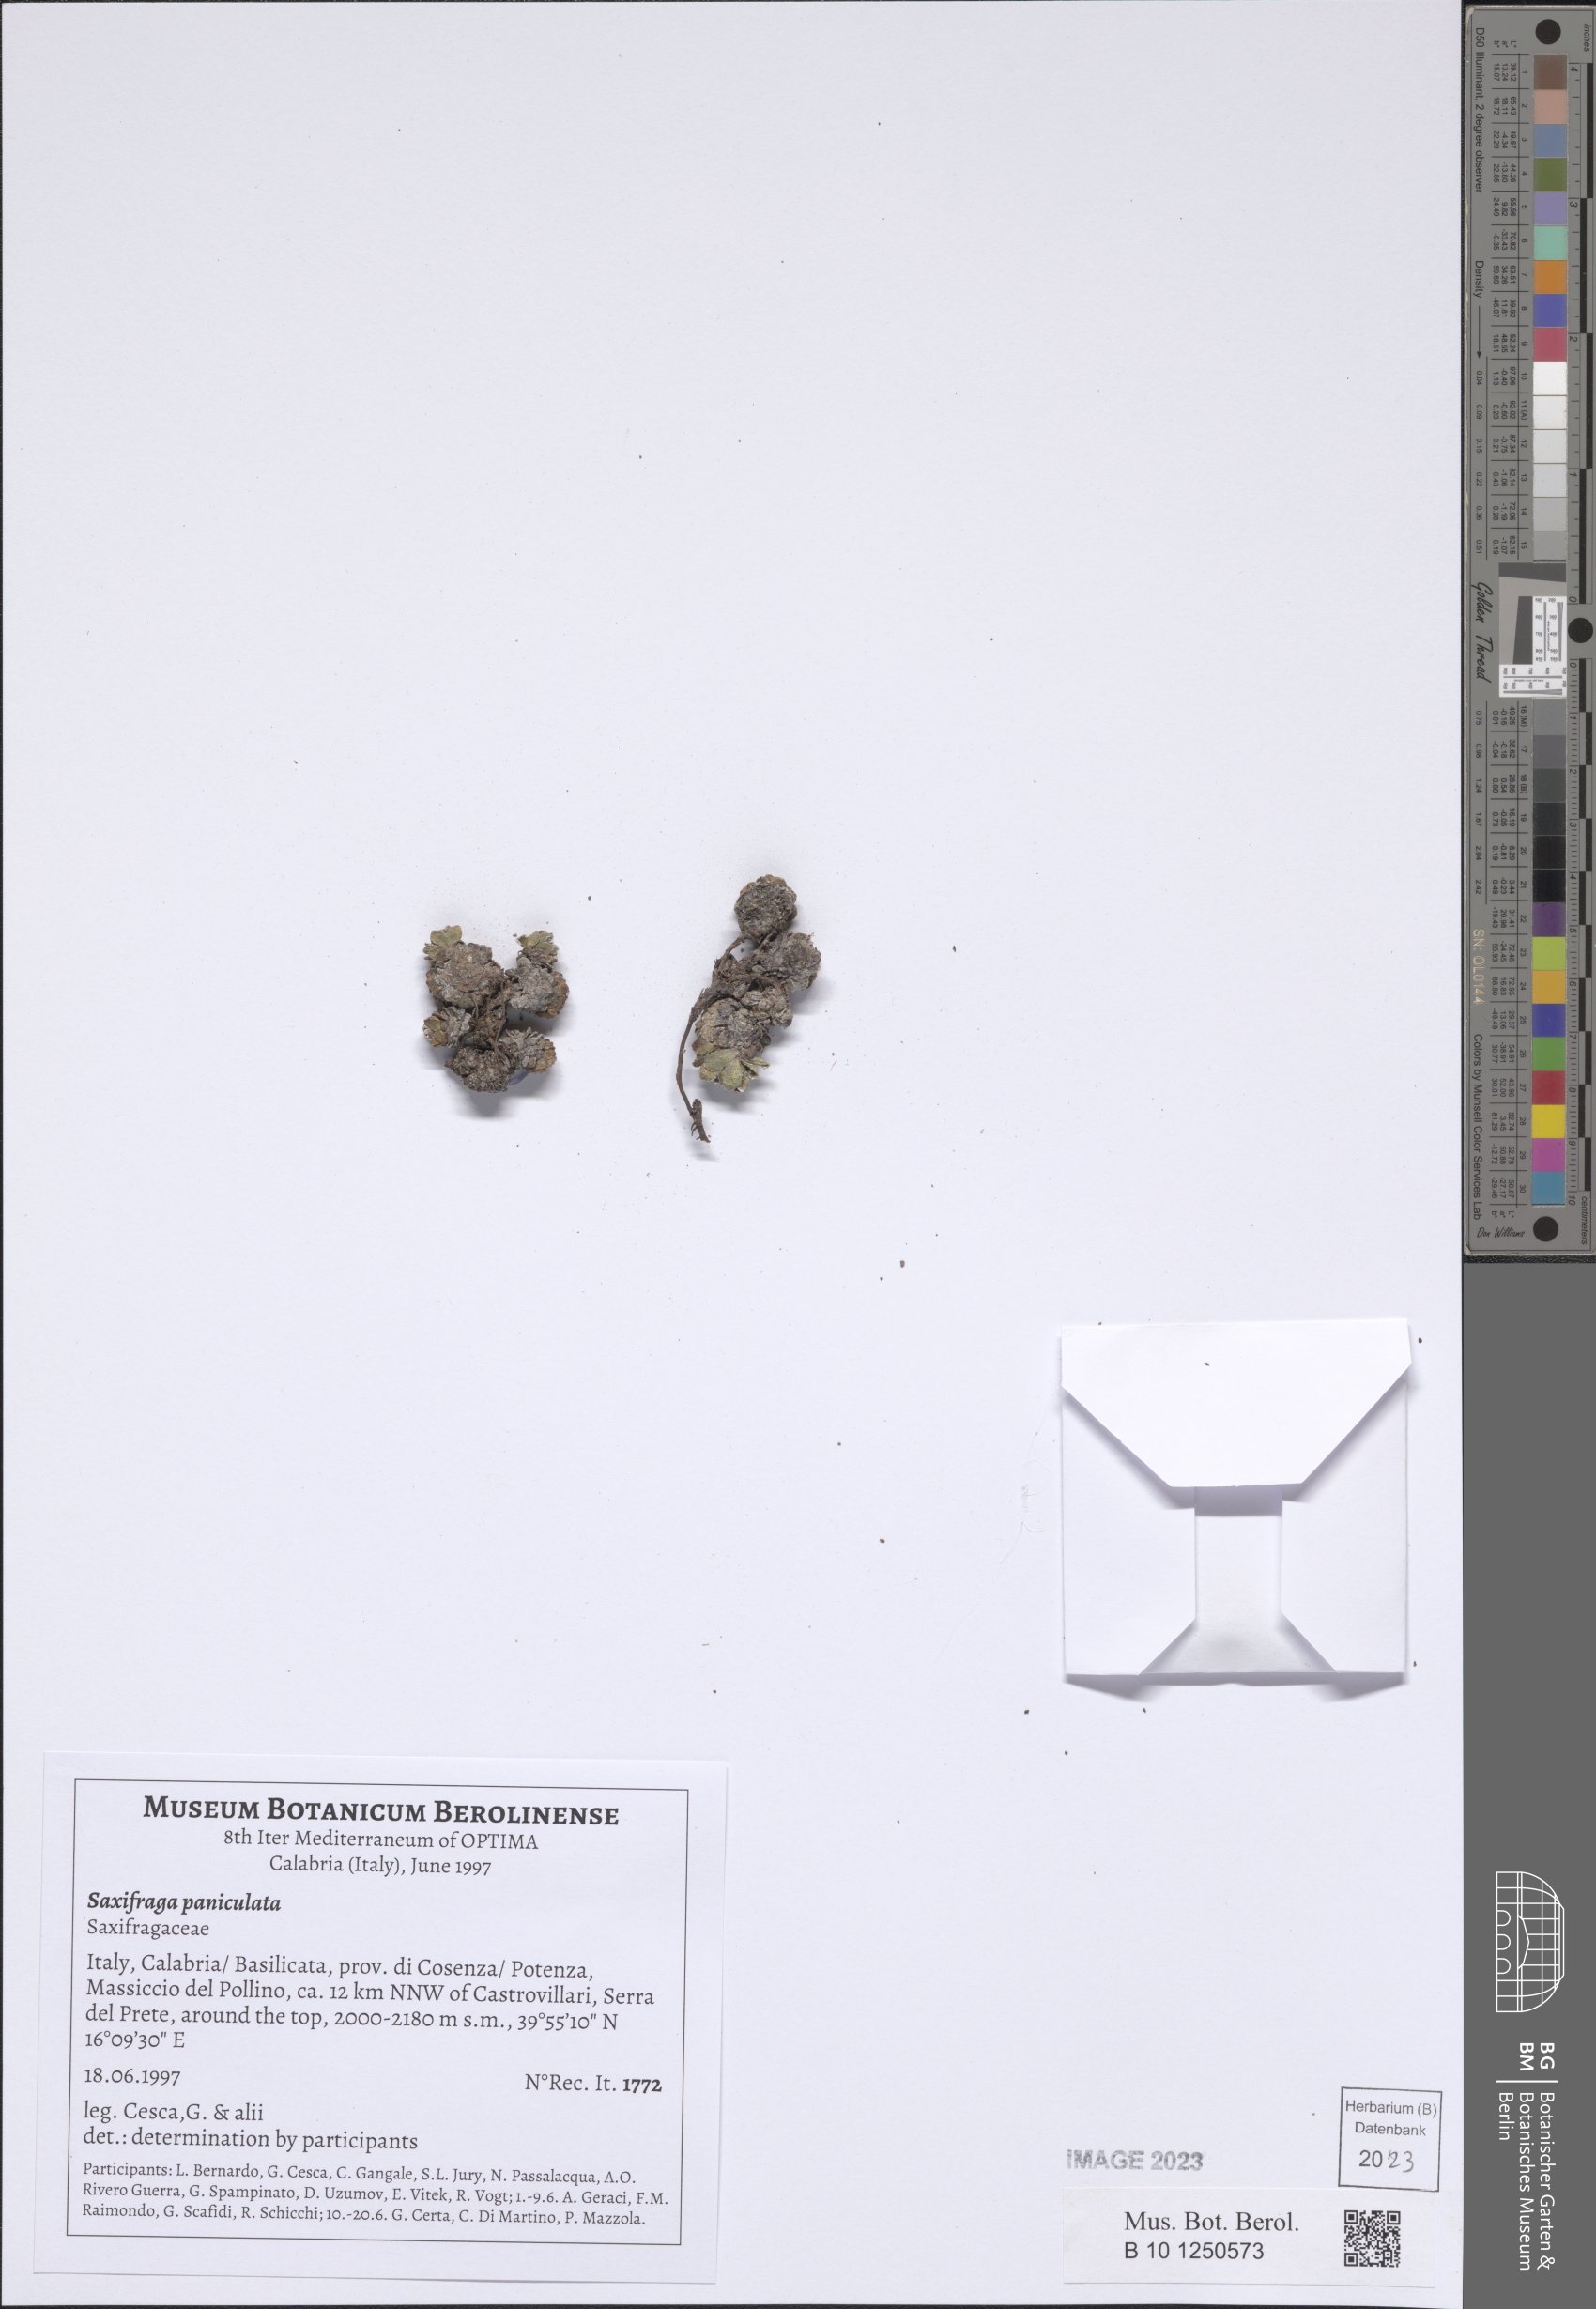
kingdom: Plantae
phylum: Tracheophyta
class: Magnoliopsida
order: Saxifragales
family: Saxifragaceae
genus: Saxifraga
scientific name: Saxifraga paniculata
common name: Livelong saxifrage
